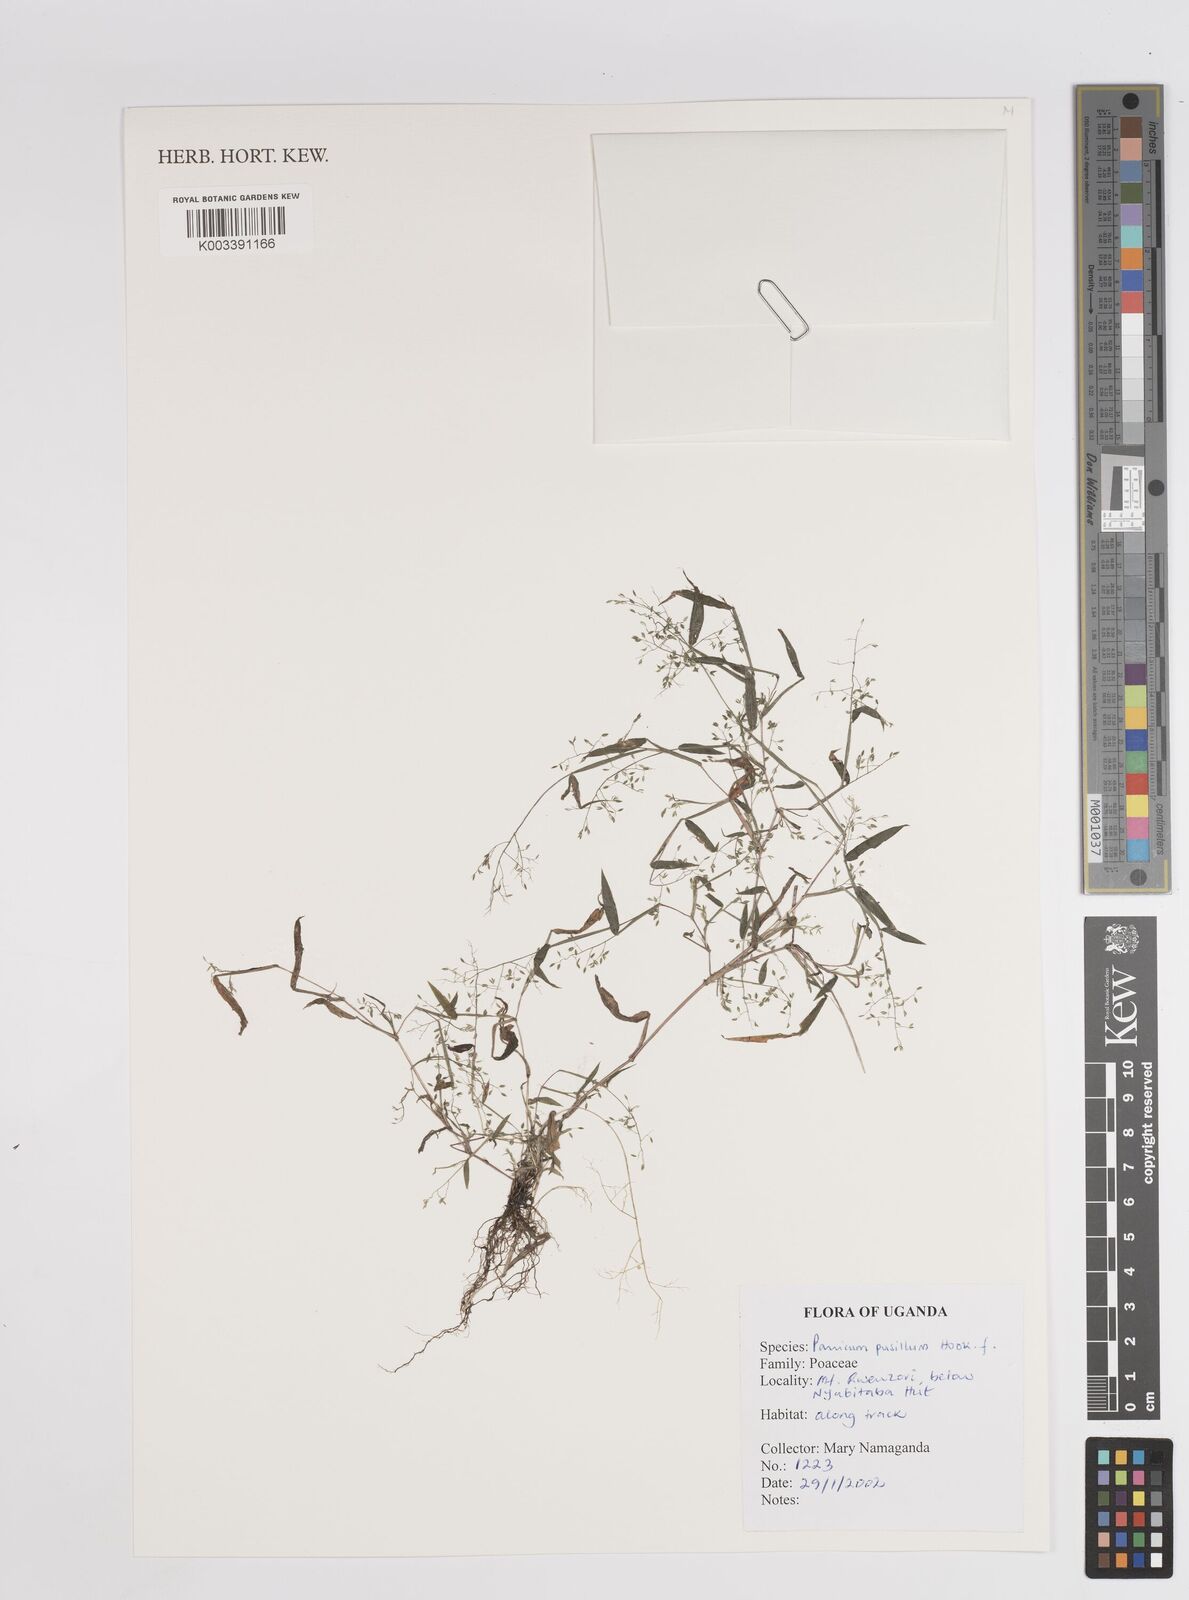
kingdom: Plantae
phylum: Tracheophyta
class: Liliopsida
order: Poales
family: Poaceae
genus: Panicum
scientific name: Panicum pusillum
